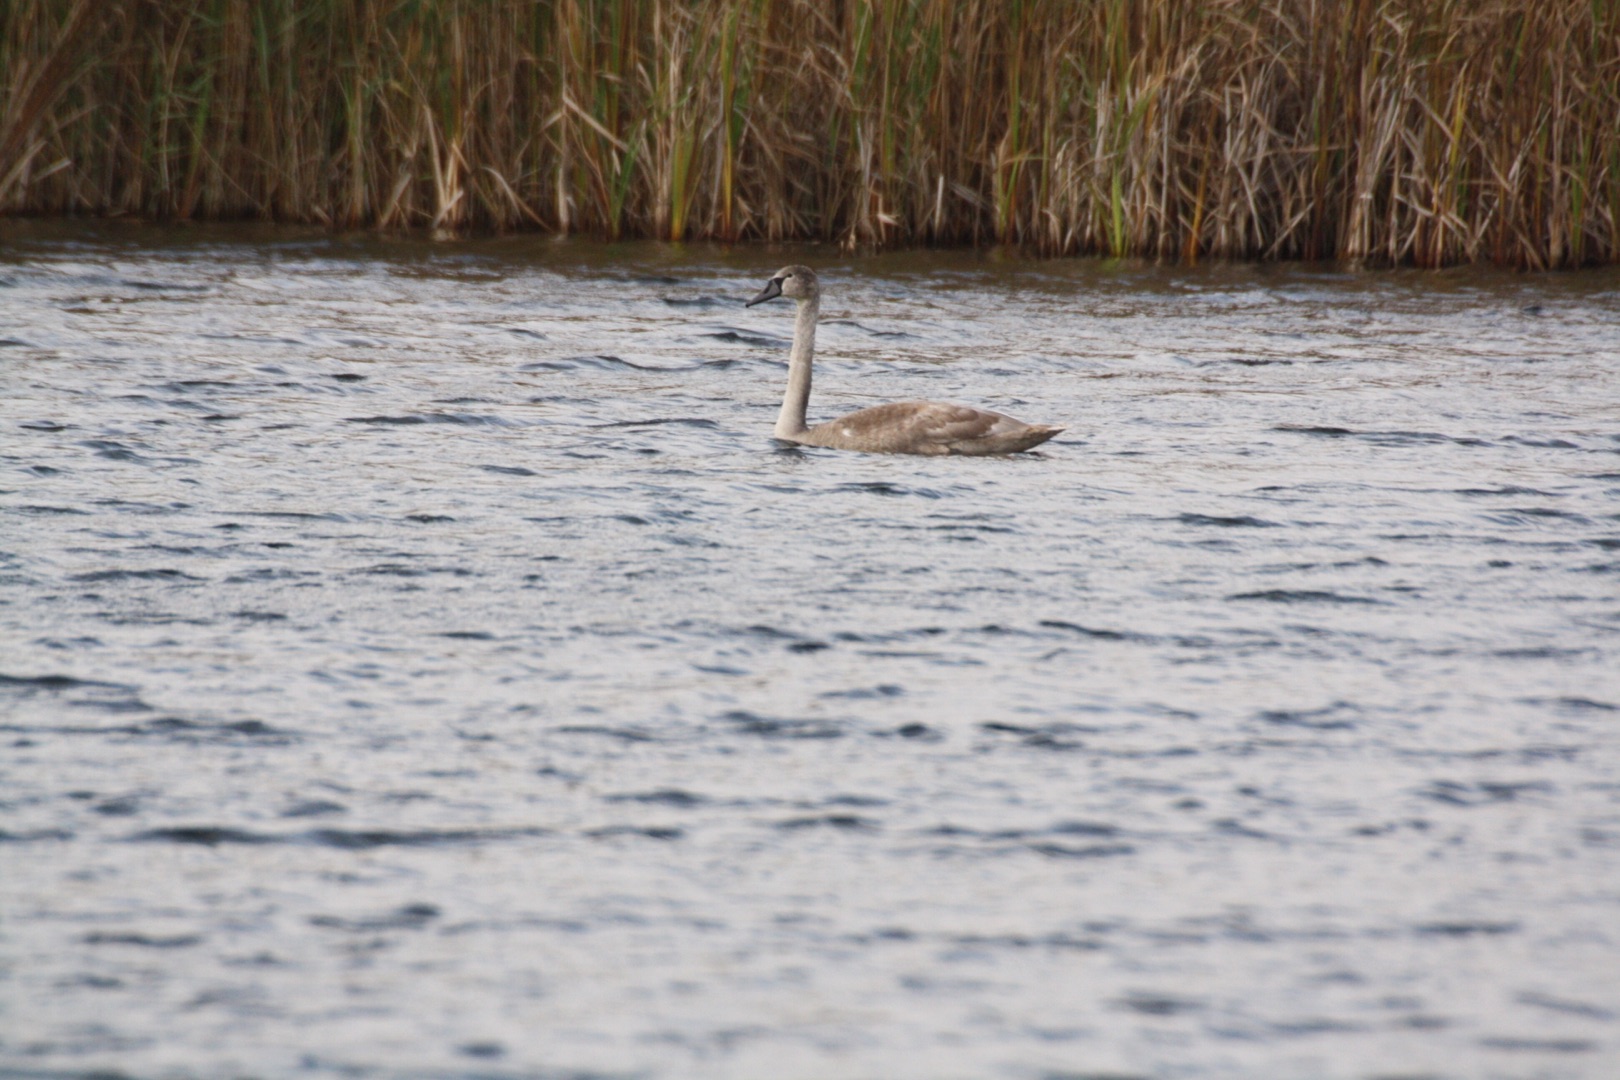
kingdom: Animalia
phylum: Chordata
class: Aves
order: Anseriformes
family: Anatidae
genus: Cygnus
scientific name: Cygnus olor
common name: Knopsvane
